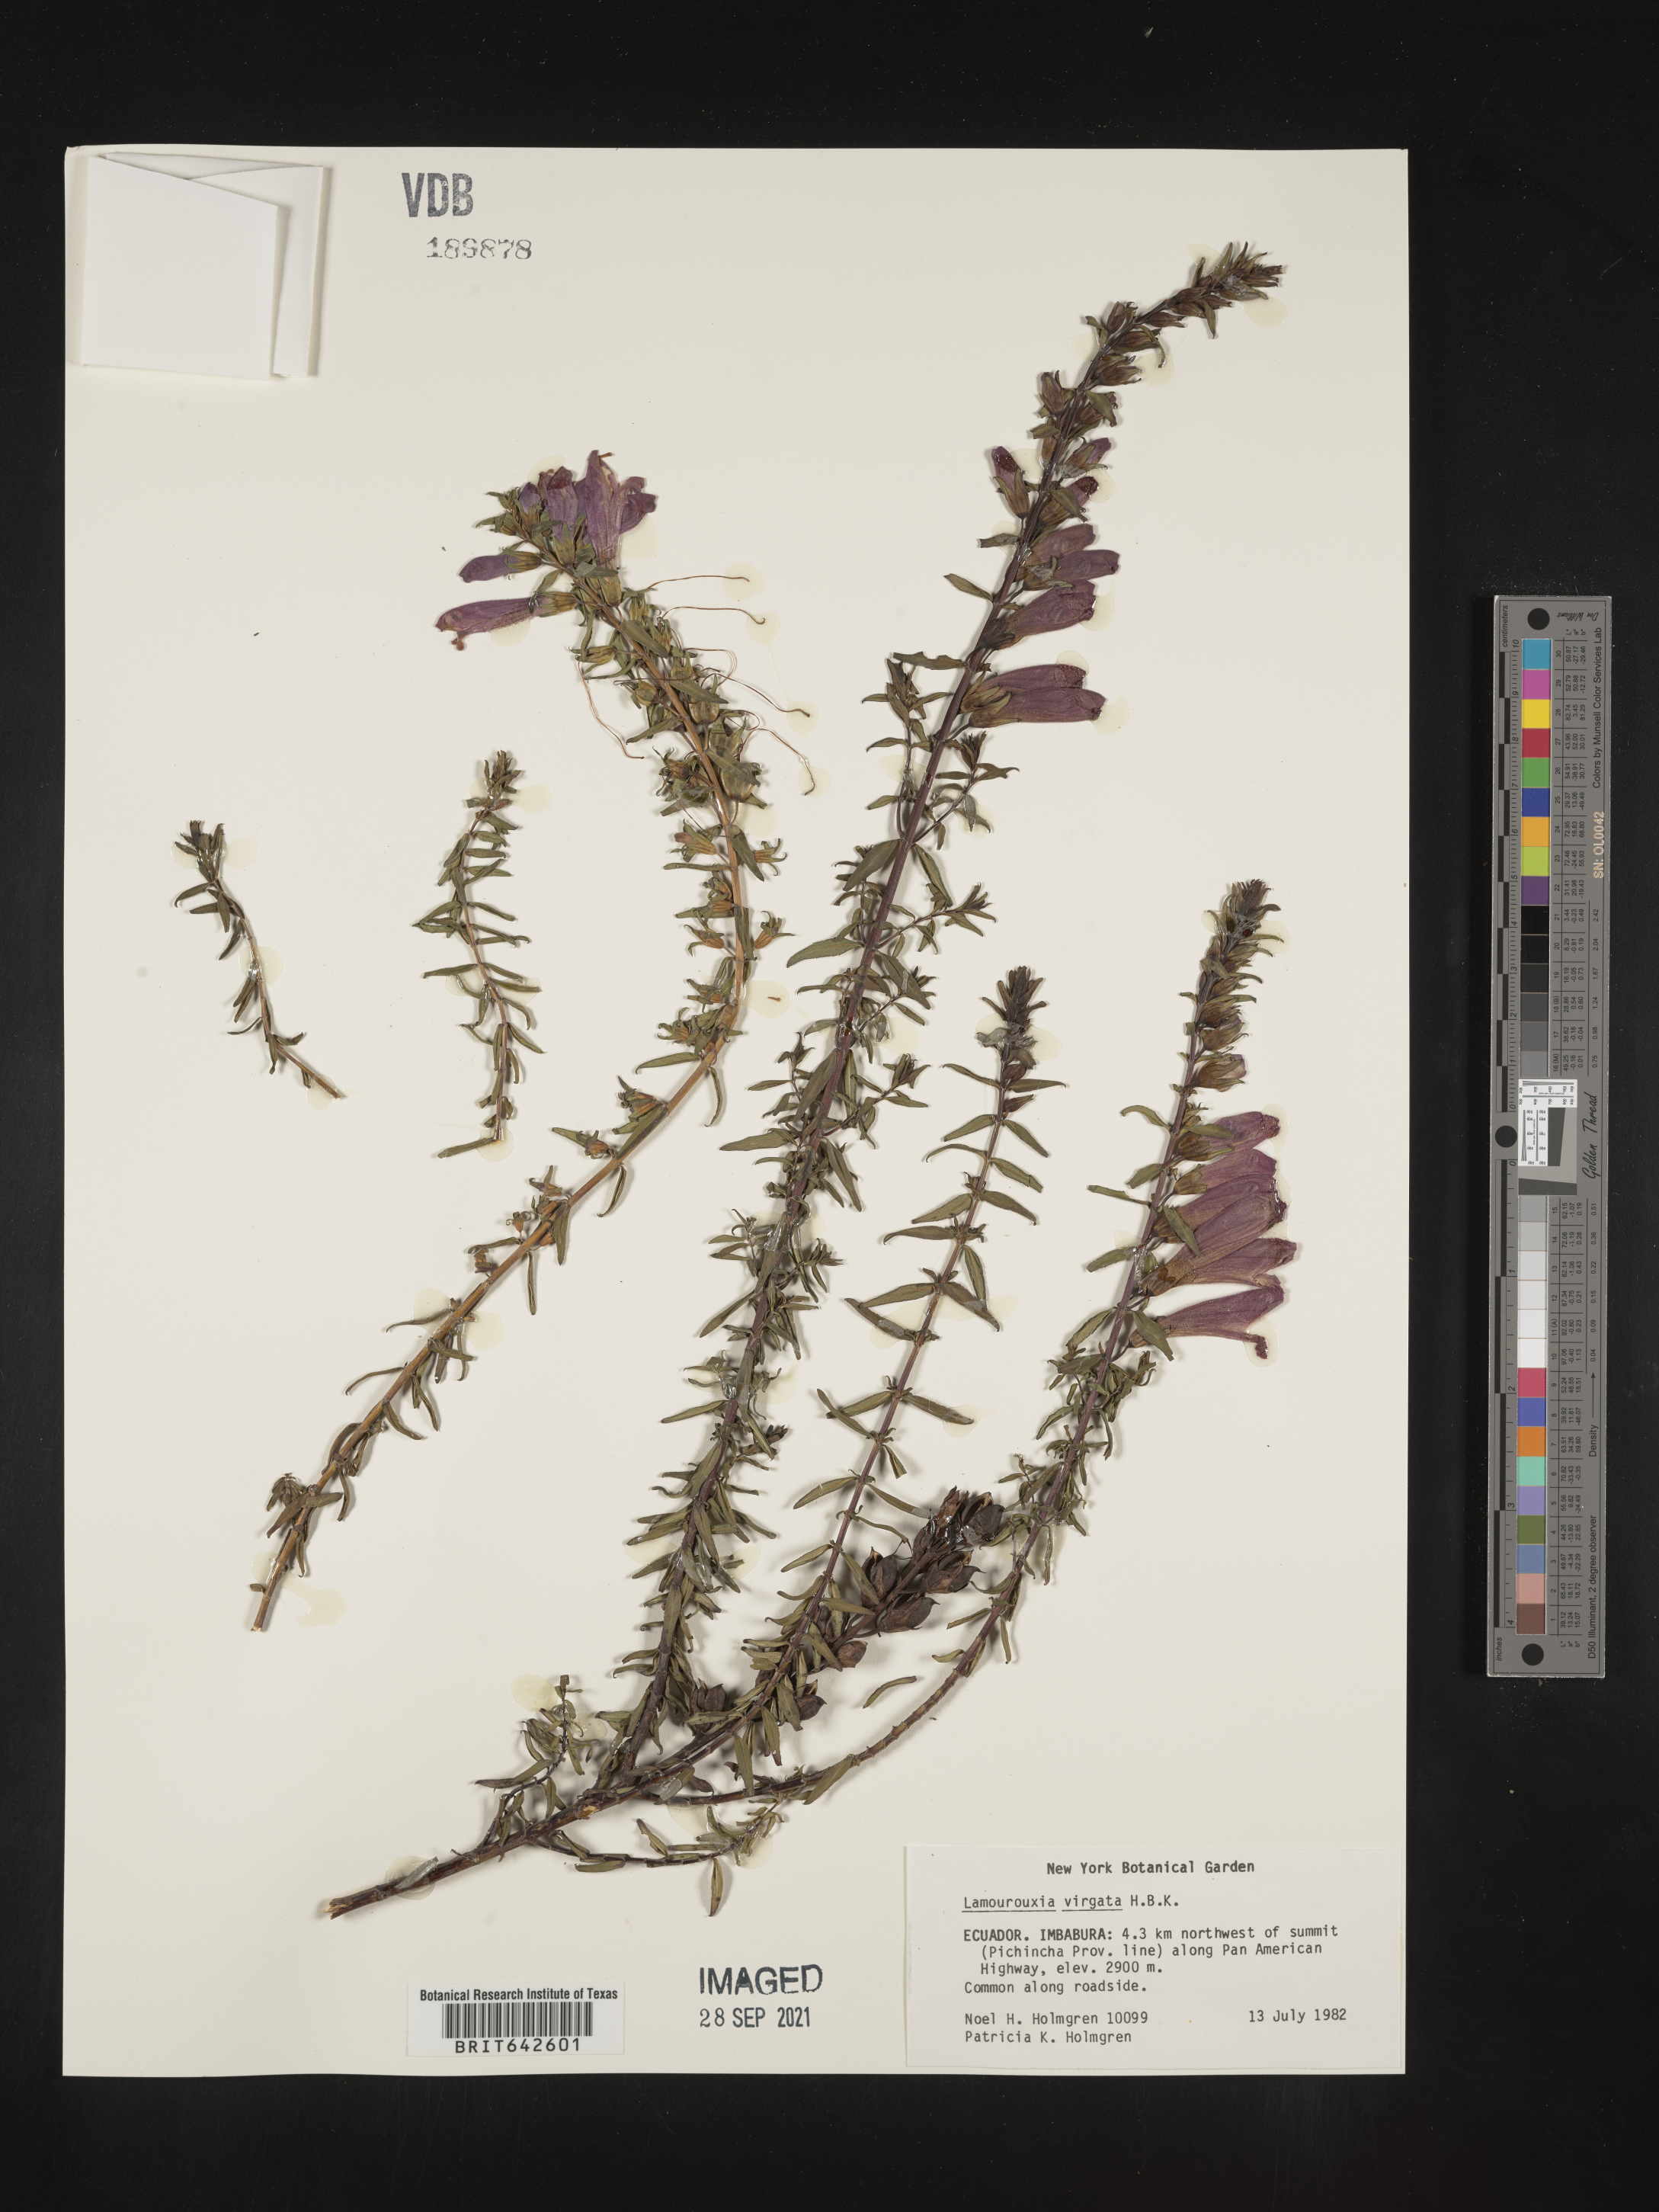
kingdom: Plantae
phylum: Tracheophyta
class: Magnoliopsida
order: Lamiales
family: Orobanchaceae
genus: Lamourouxia
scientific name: Lamourouxia
